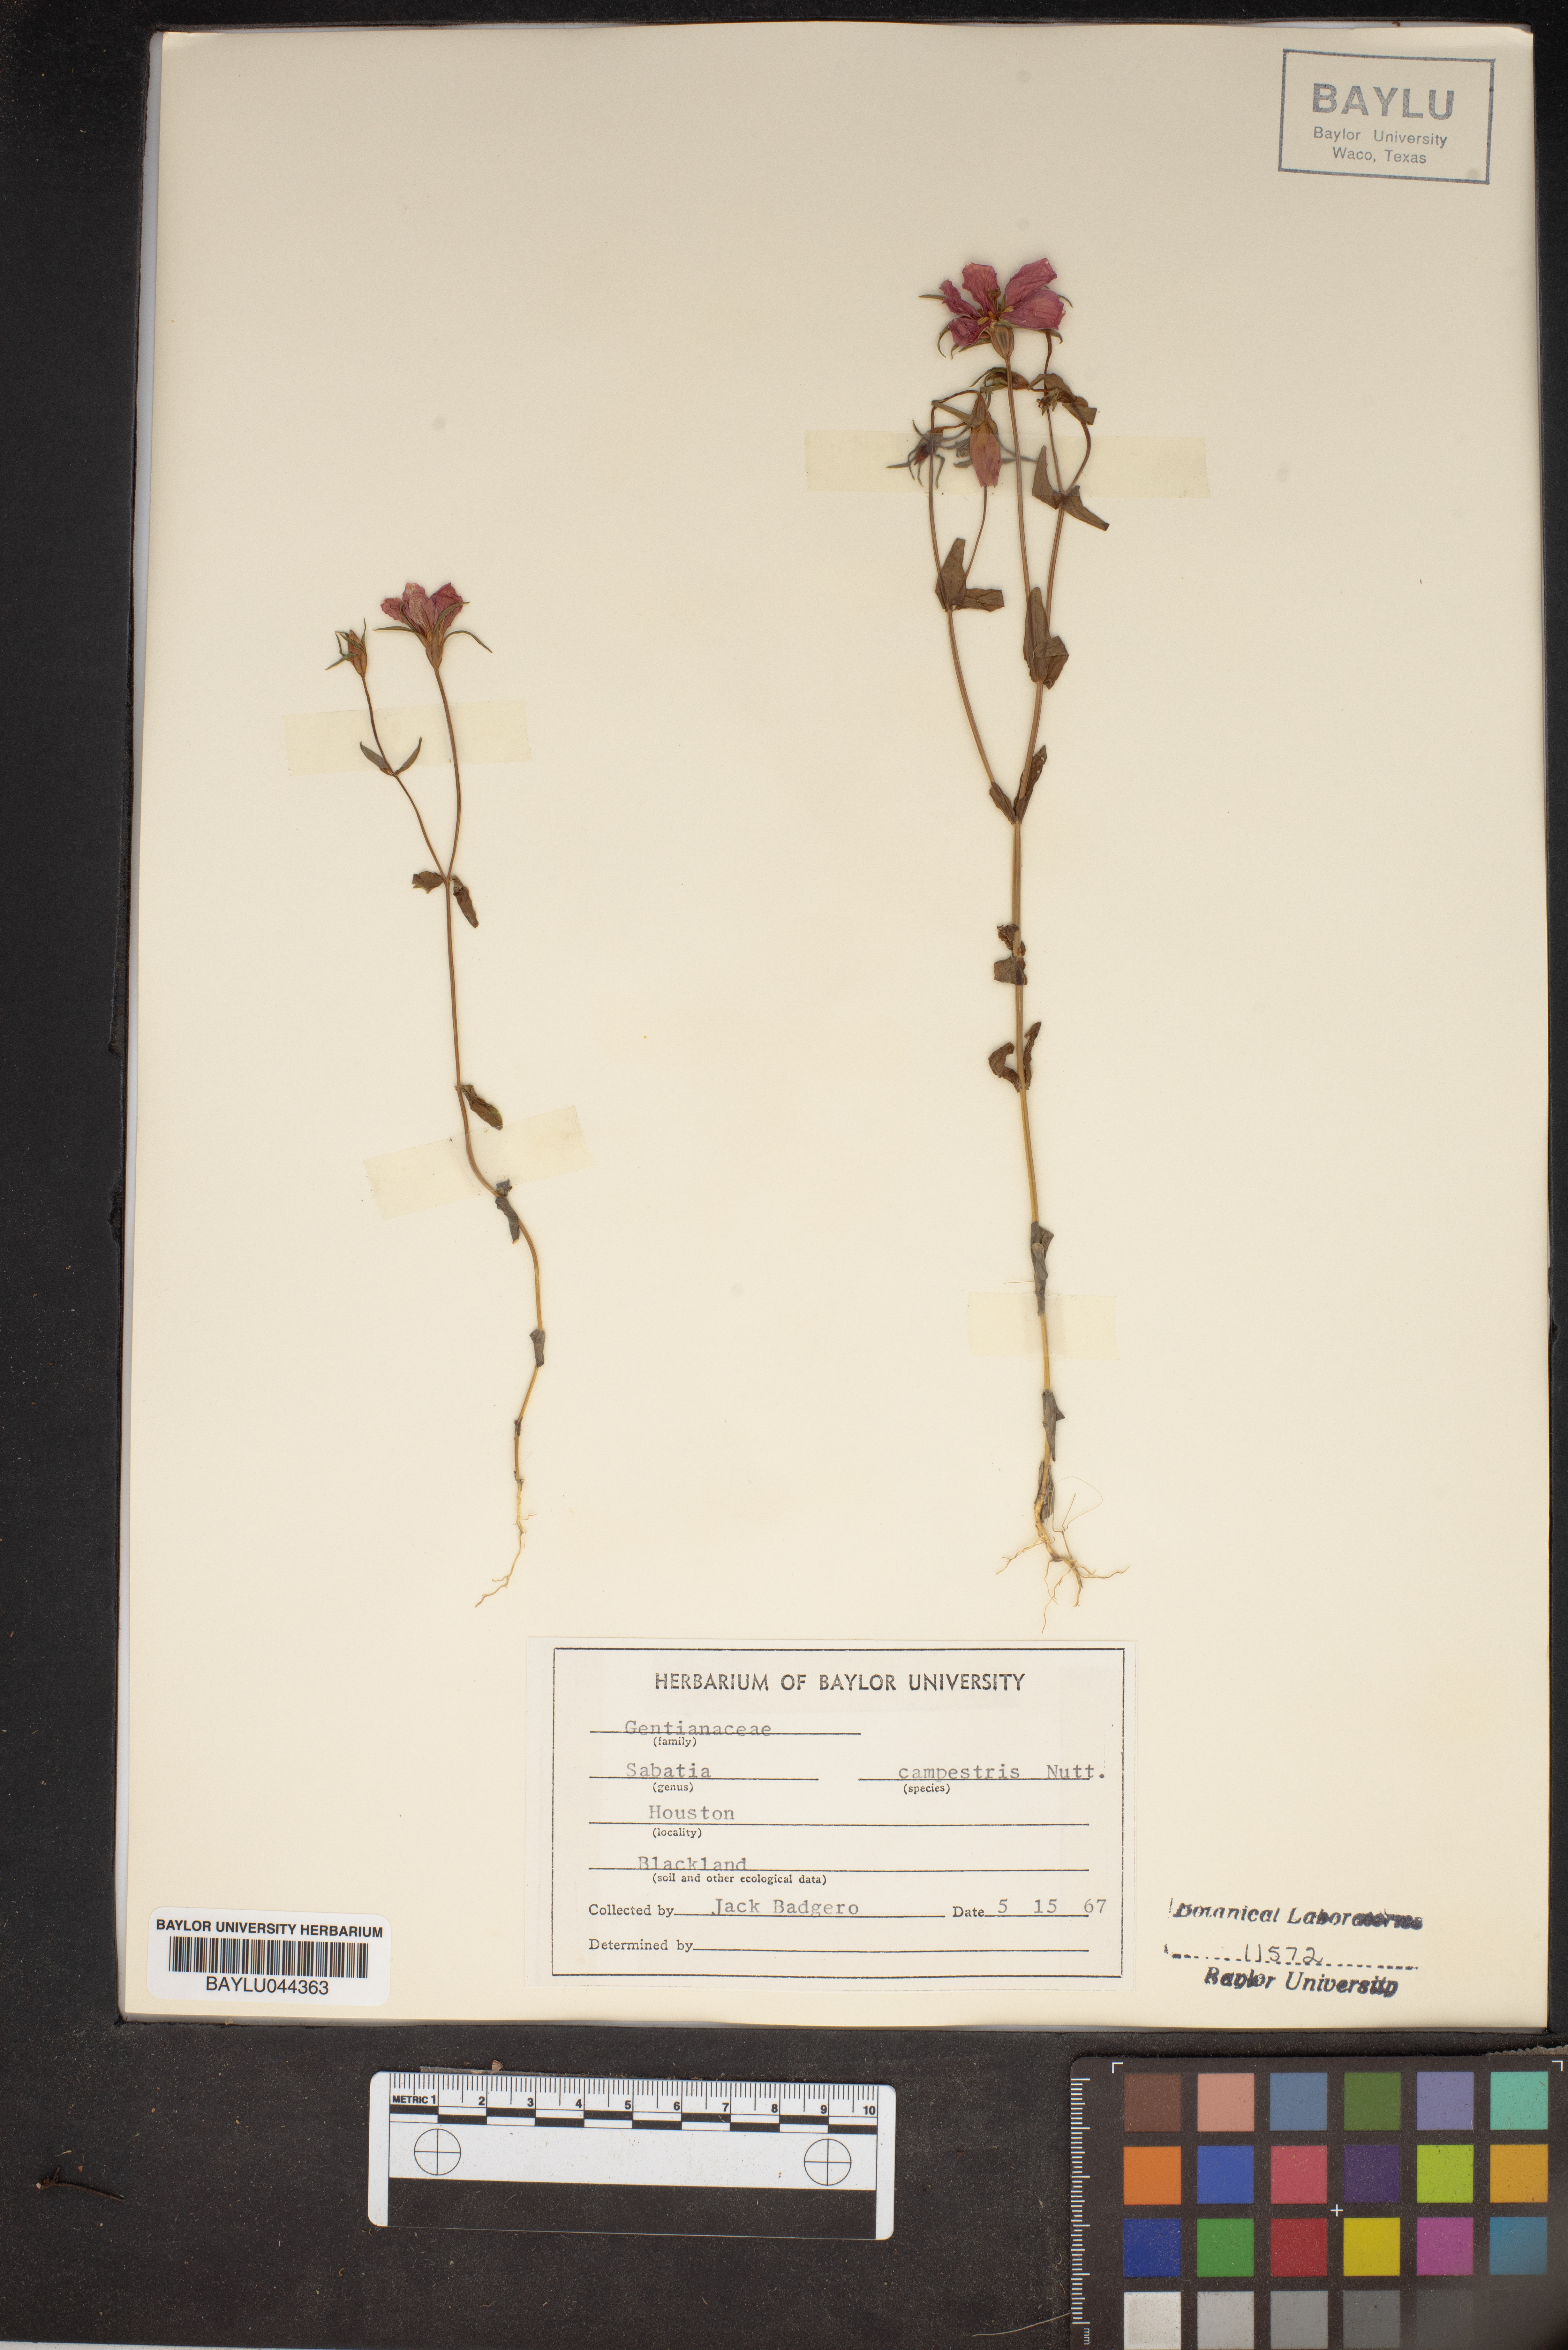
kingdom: Plantae
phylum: Tracheophyta
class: Magnoliopsida
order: Gentianales
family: Gentianaceae
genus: Sabatia
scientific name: Sabatia campestris
